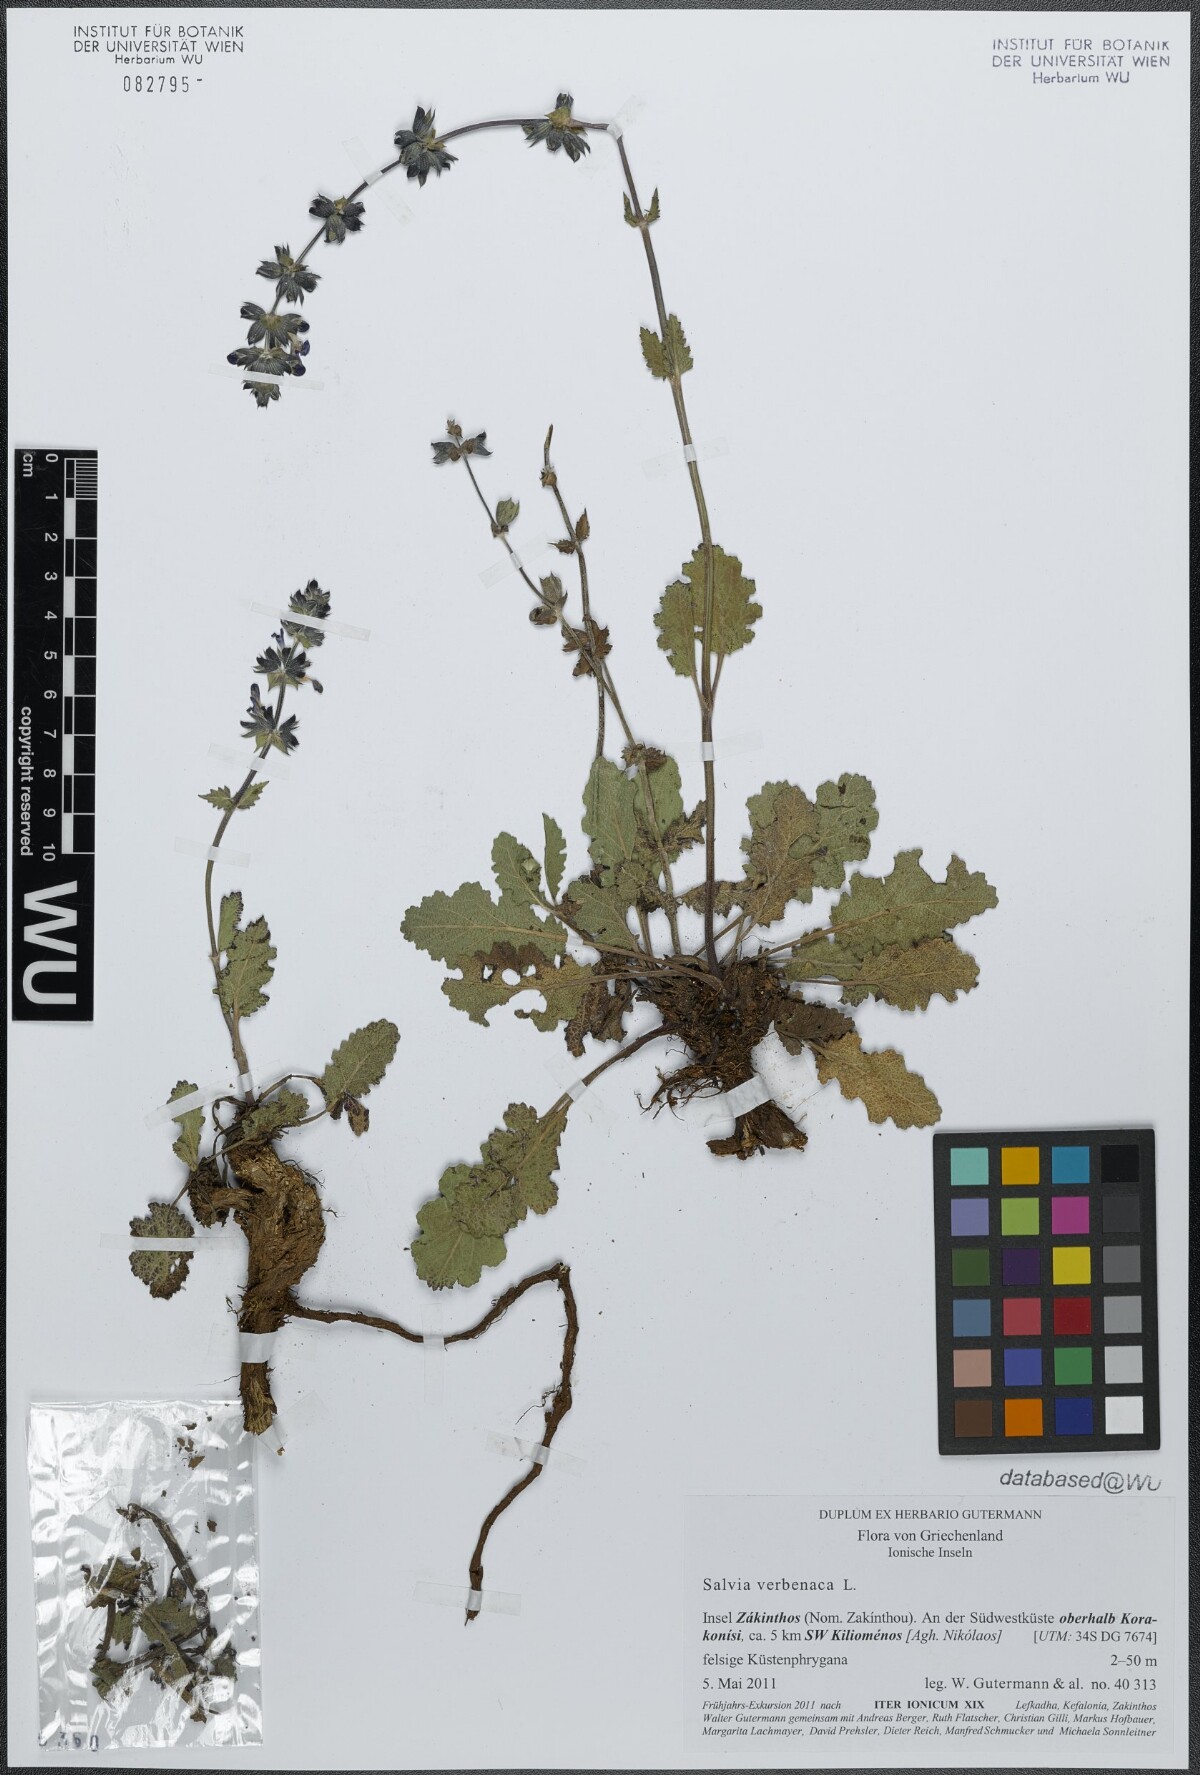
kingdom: Plantae
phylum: Tracheophyta
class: Magnoliopsida
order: Lamiales
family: Lamiaceae
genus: Salvia
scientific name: Salvia verbenaca
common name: Wild clary
